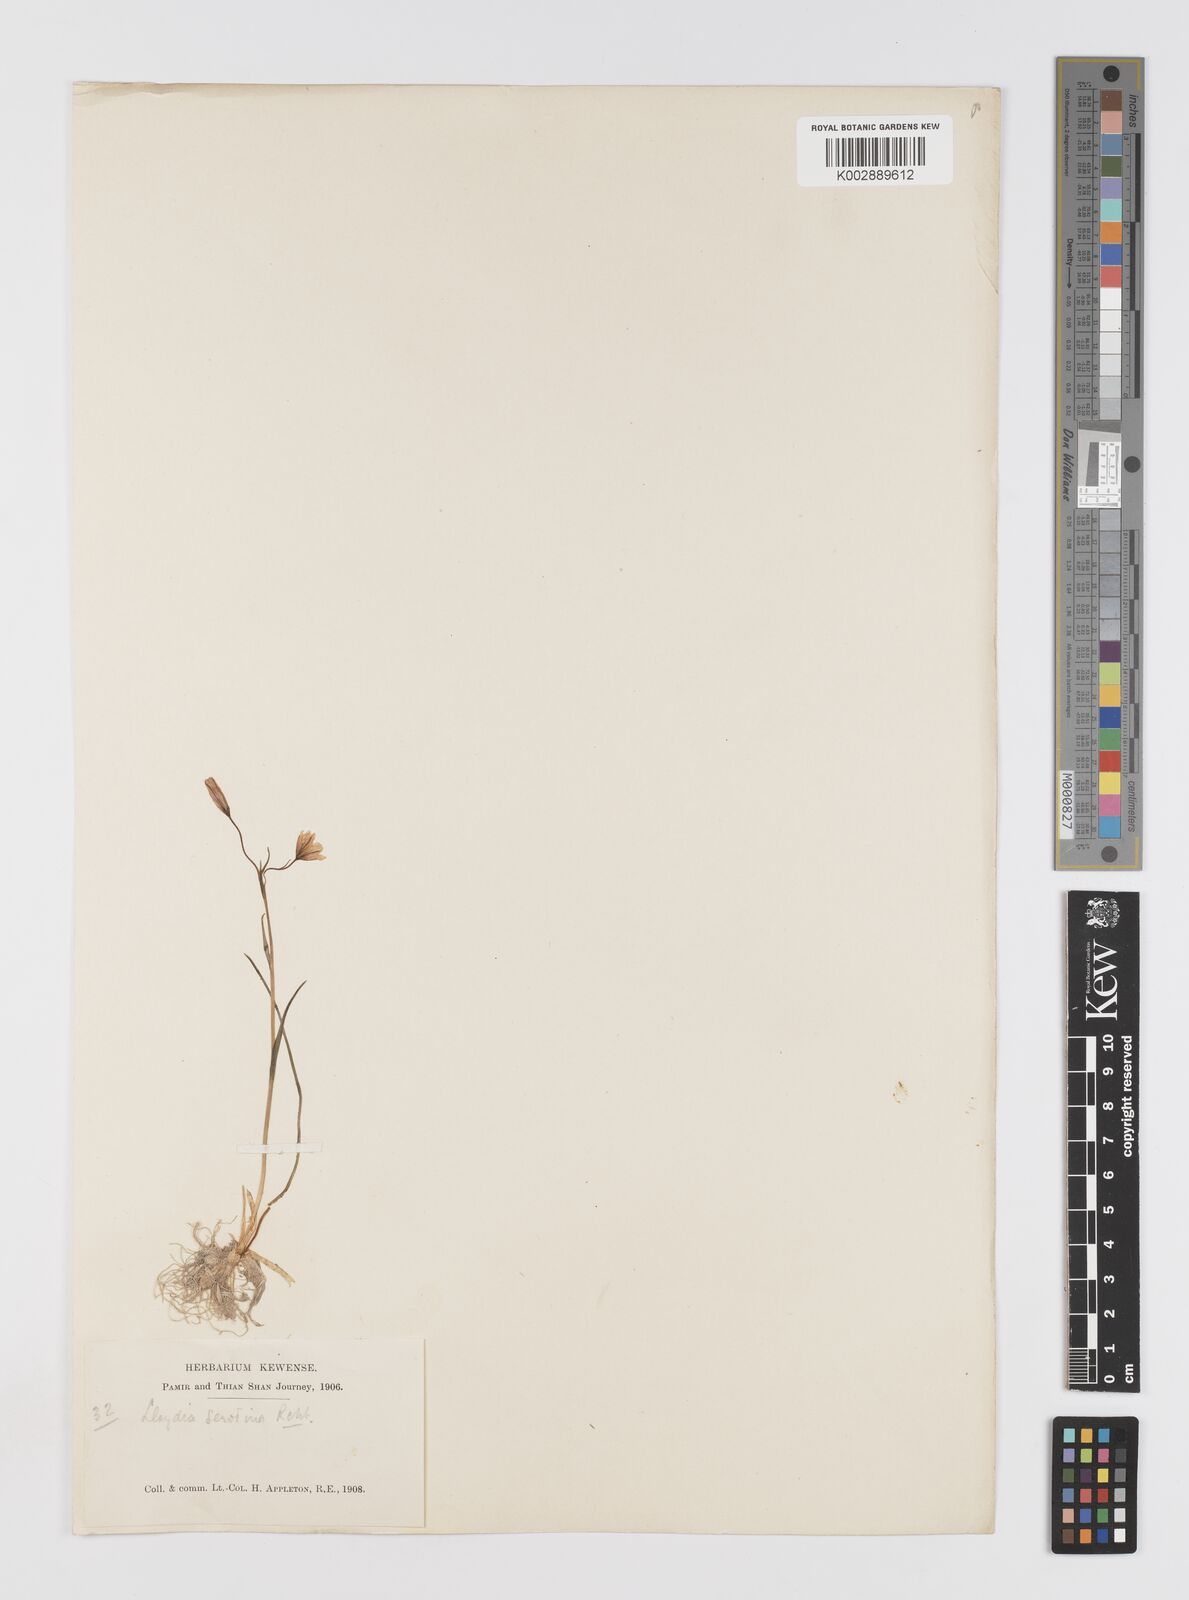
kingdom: Plantae
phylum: Tracheophyta
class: Liliopsida
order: Liliales
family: Liliaceae
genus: Gagea
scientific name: Gagea serotina
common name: Snowdon lily
